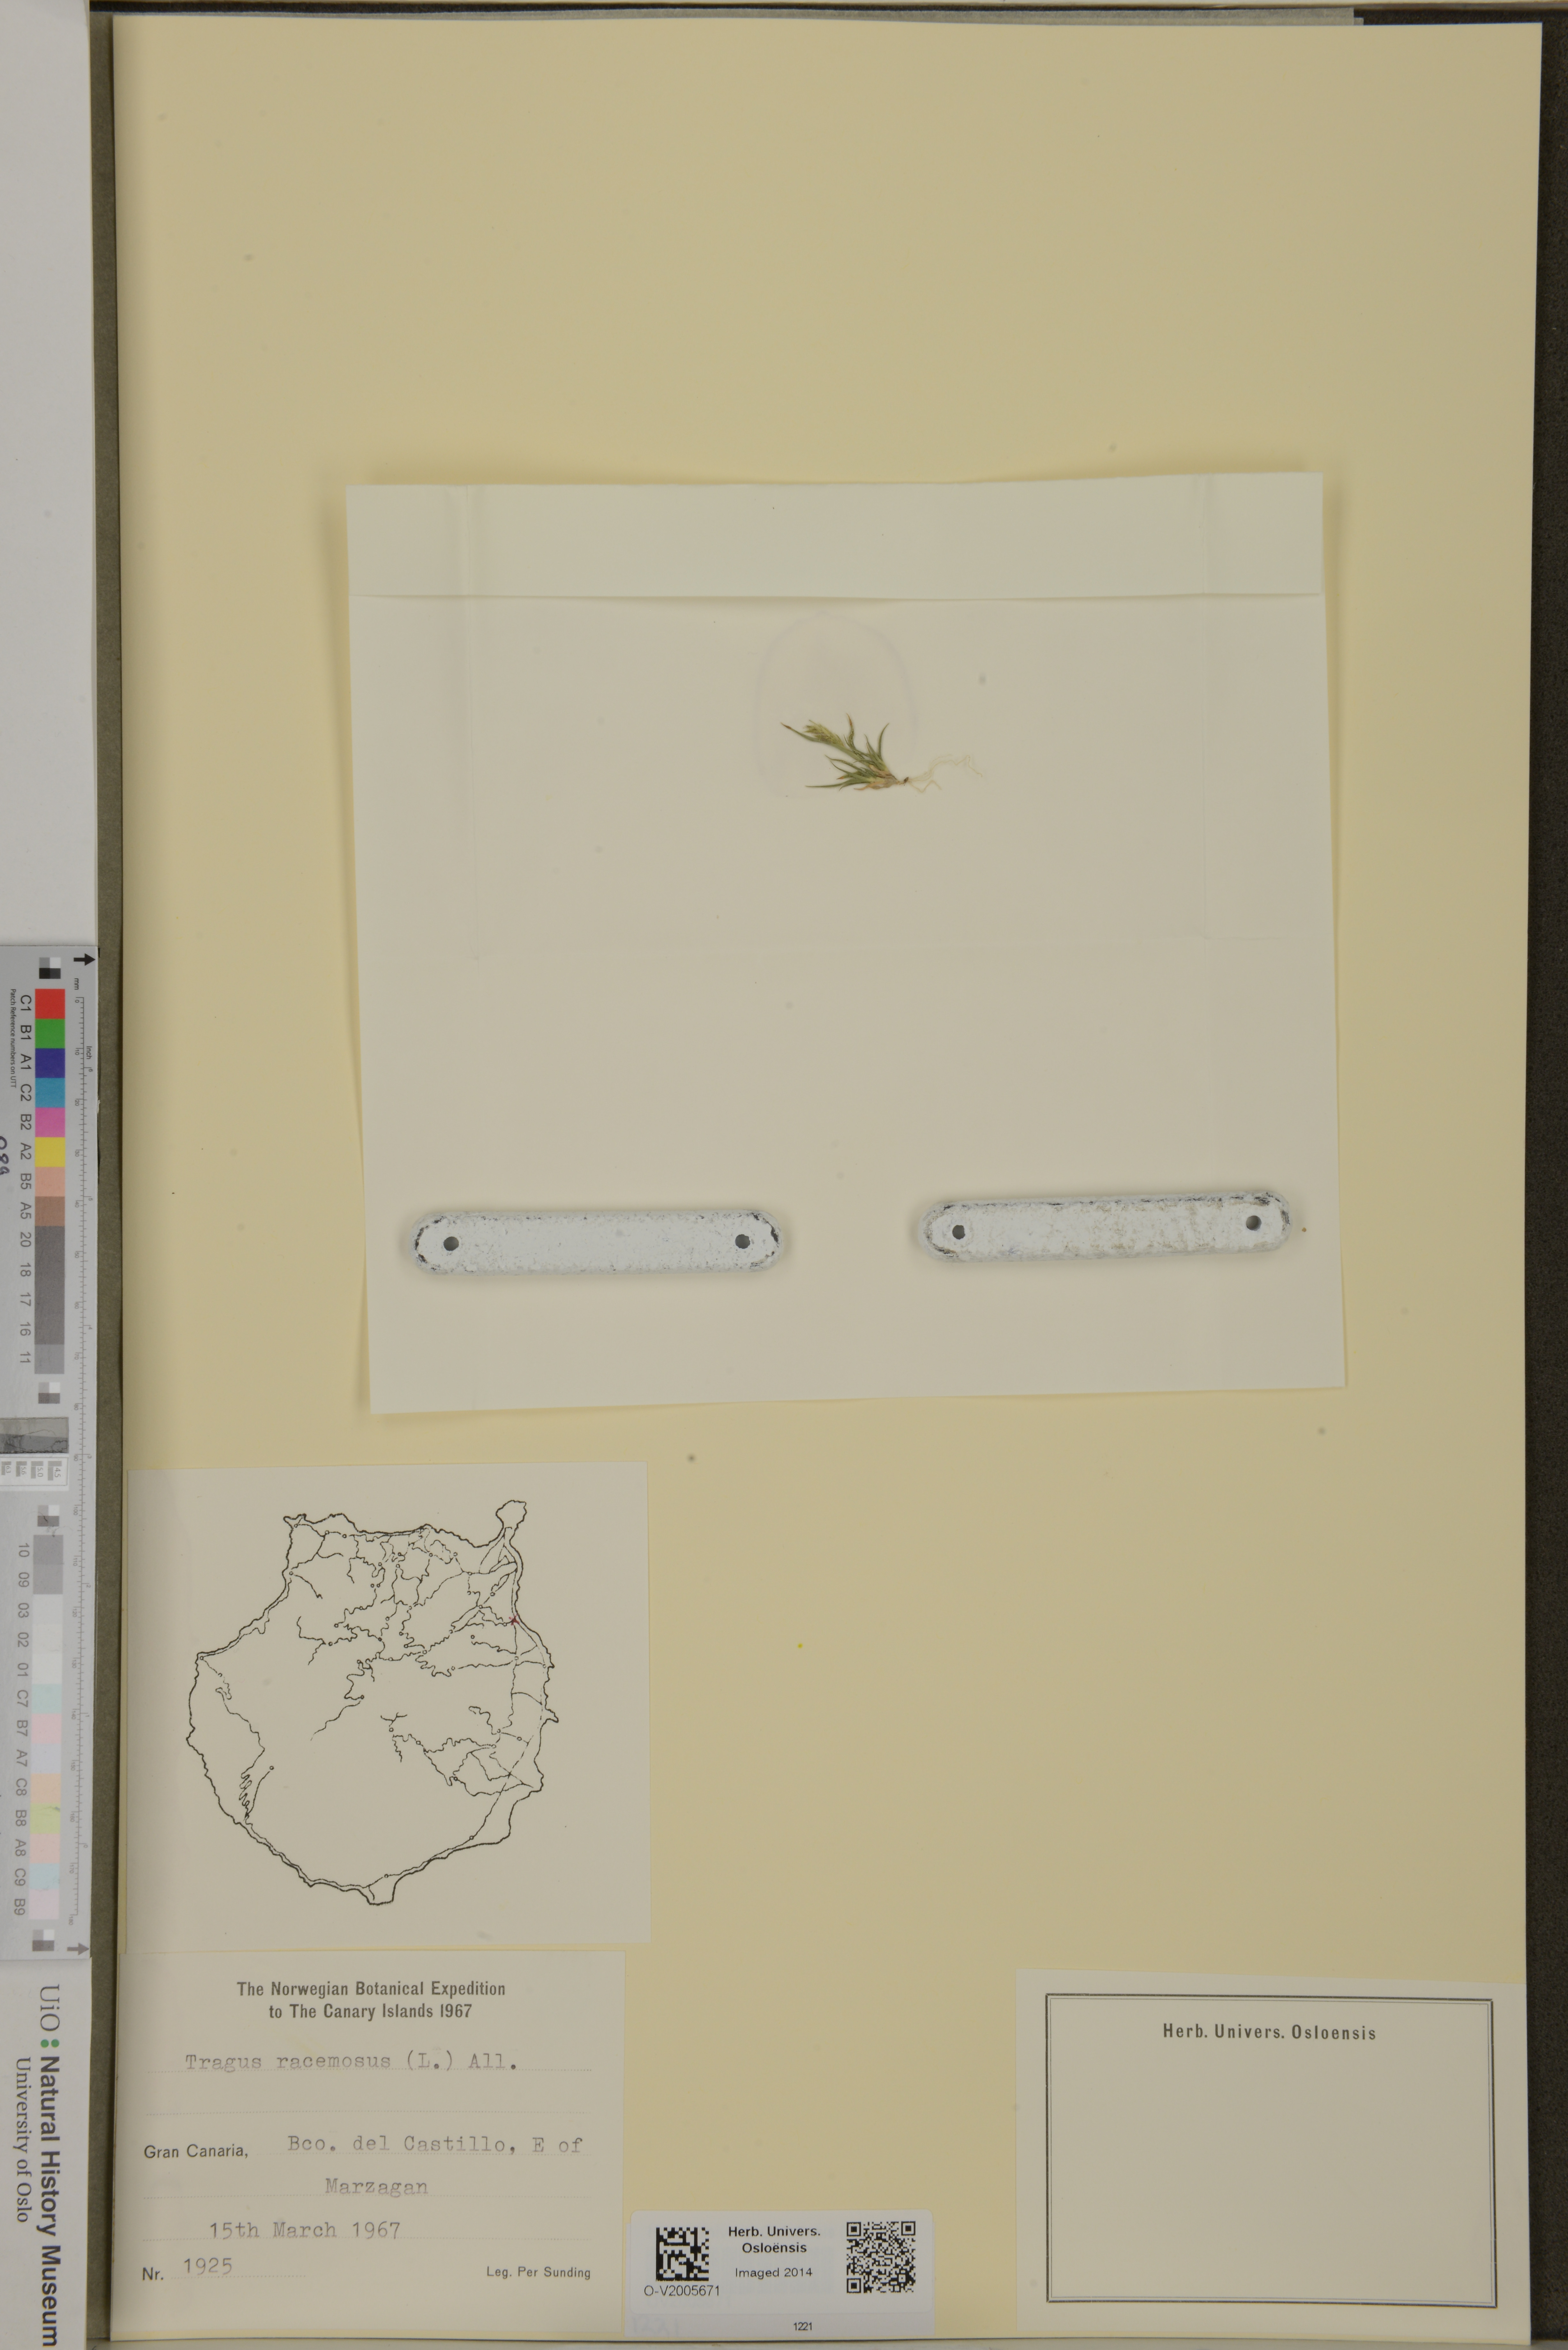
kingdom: Plantae
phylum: Tracheophyta
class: Liliopsida
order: Poales
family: Poaceae
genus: Tragus
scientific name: Tragus racemosus
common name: European bur-grass
